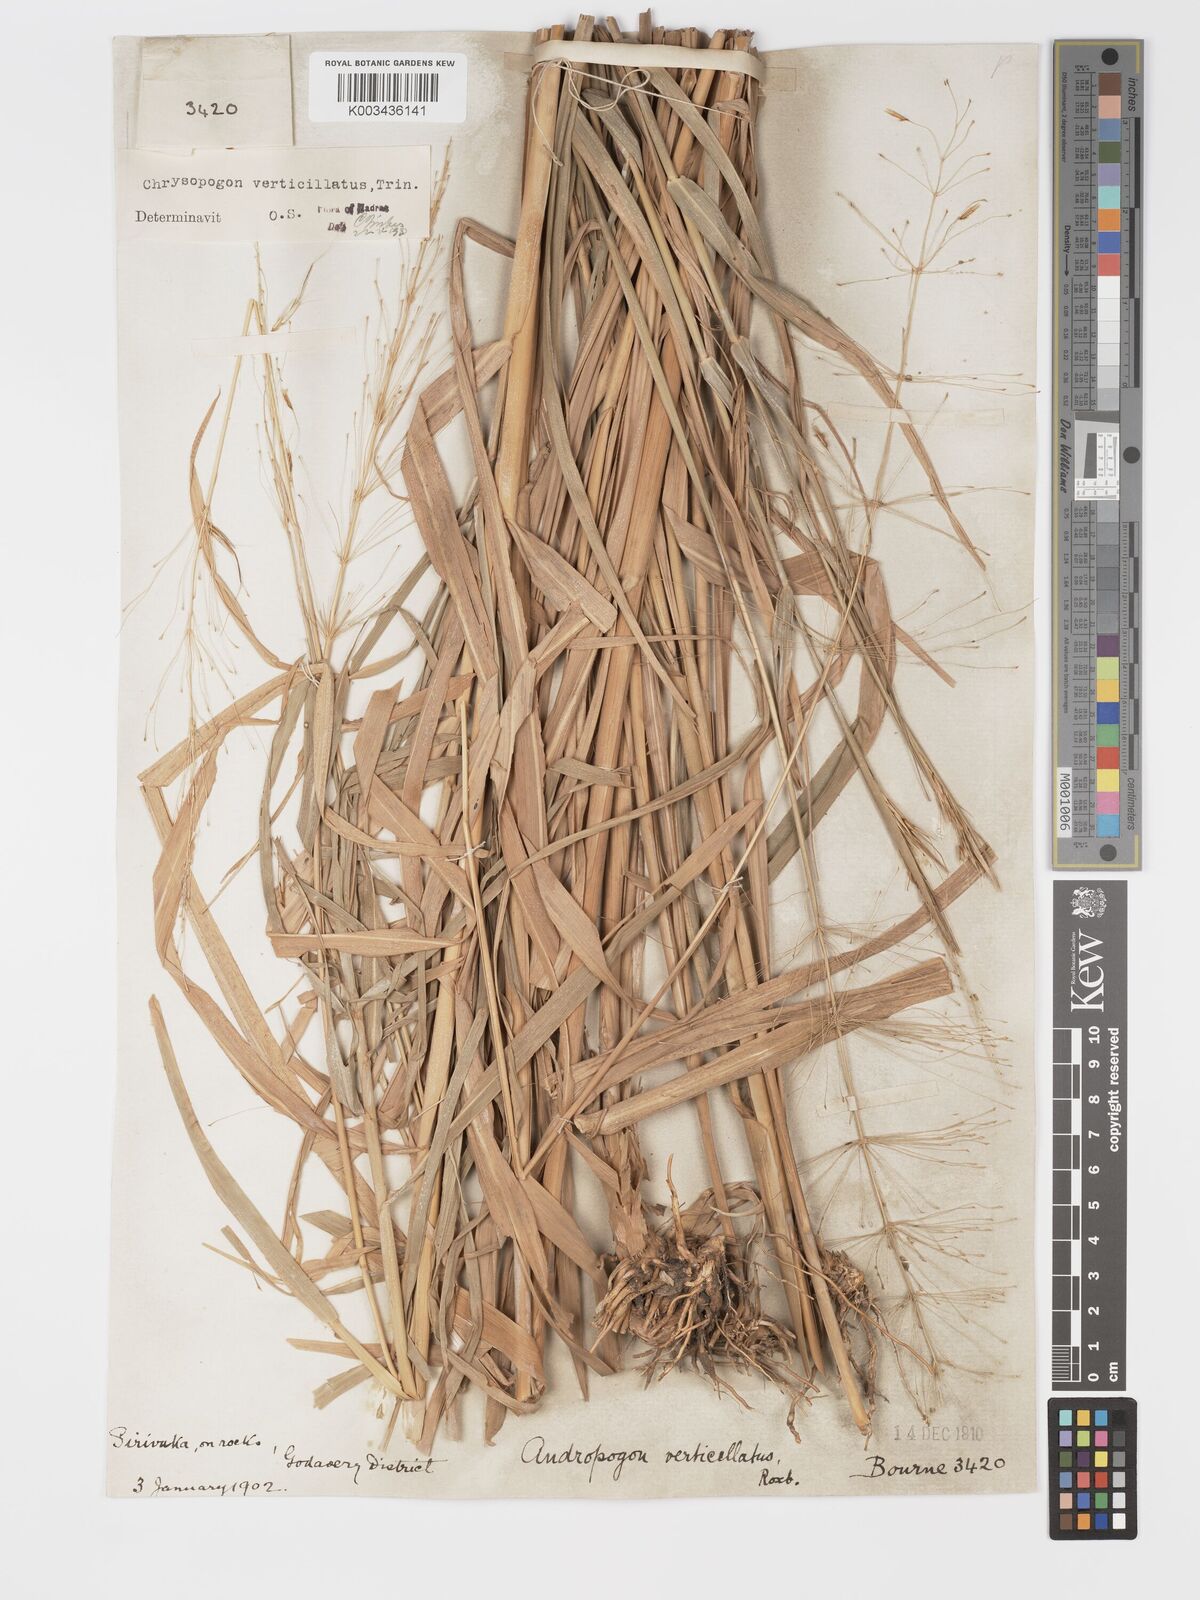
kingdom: Plantae
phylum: Tracheophyta
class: Liliopsida
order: Poales
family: Poaceae
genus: Chrysopogon
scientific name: Chrysopogon verticillatus
